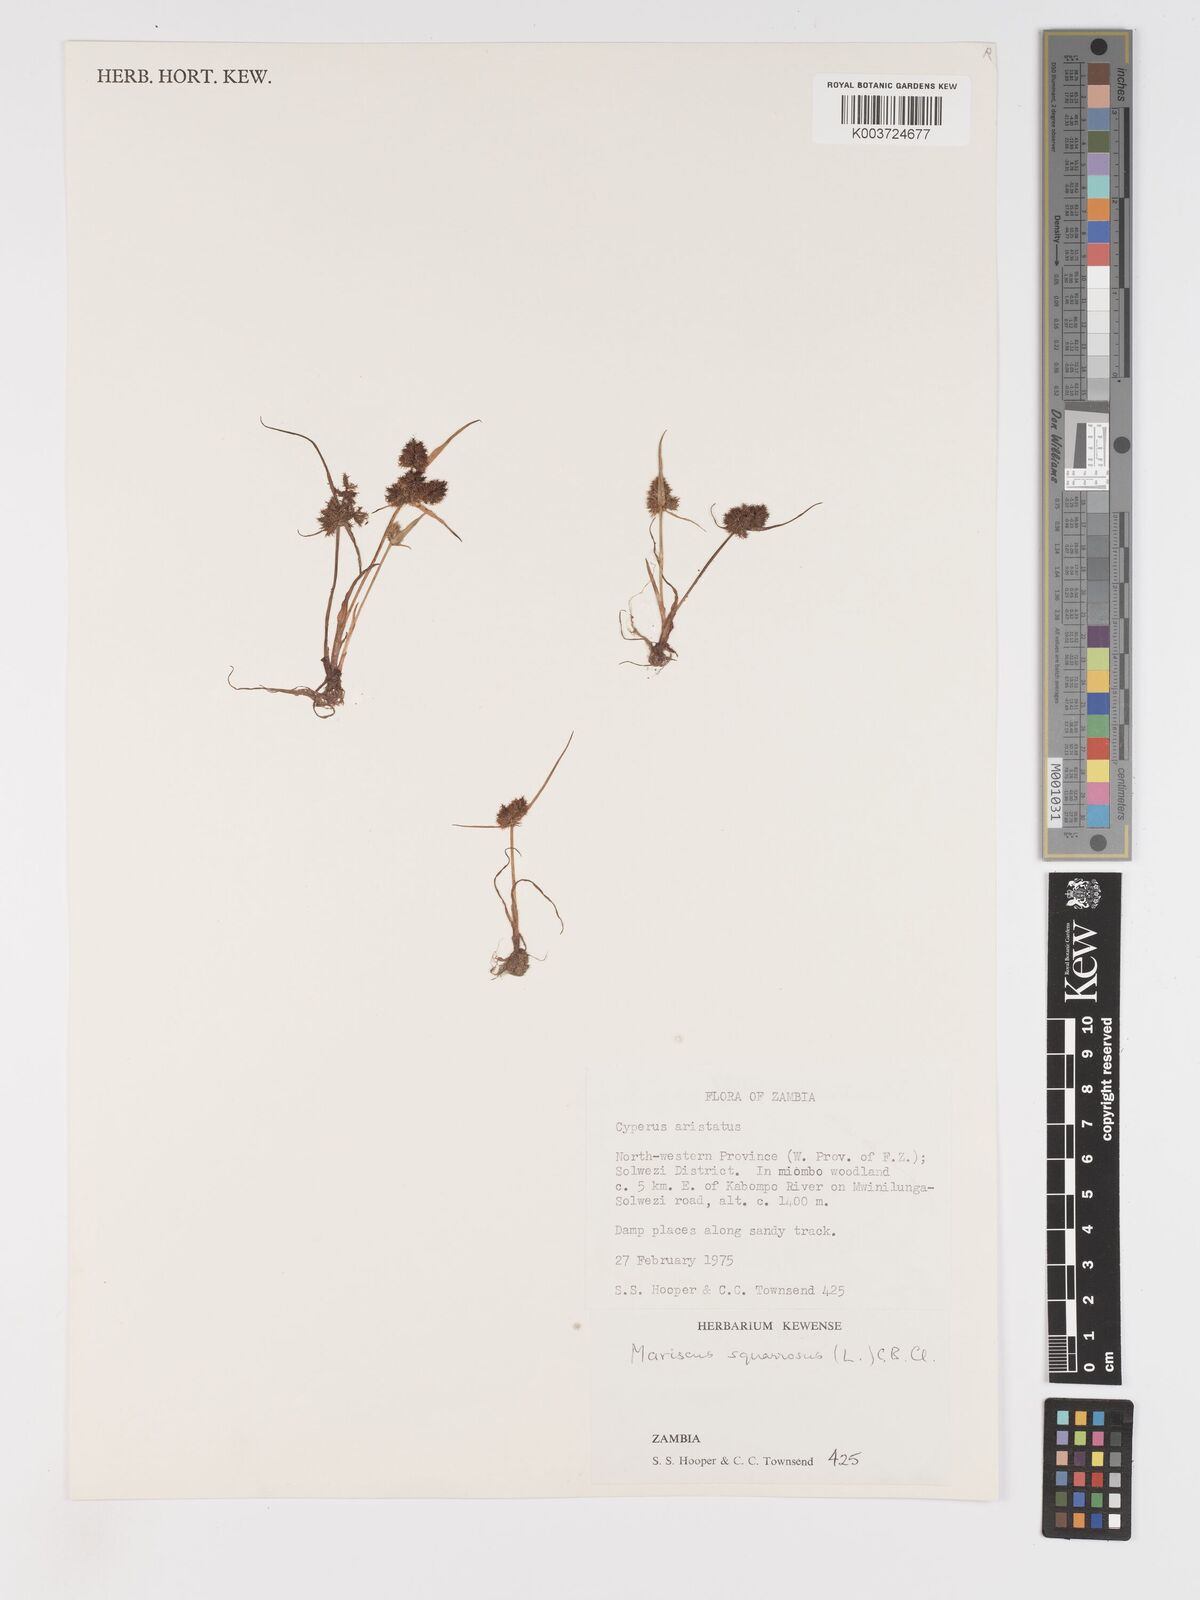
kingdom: Plantae
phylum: Tracheophyta
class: Liliopsida
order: Poales
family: Cyperaceae
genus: Cyperus
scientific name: Cyperus squarrosus
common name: Awned cyperus
